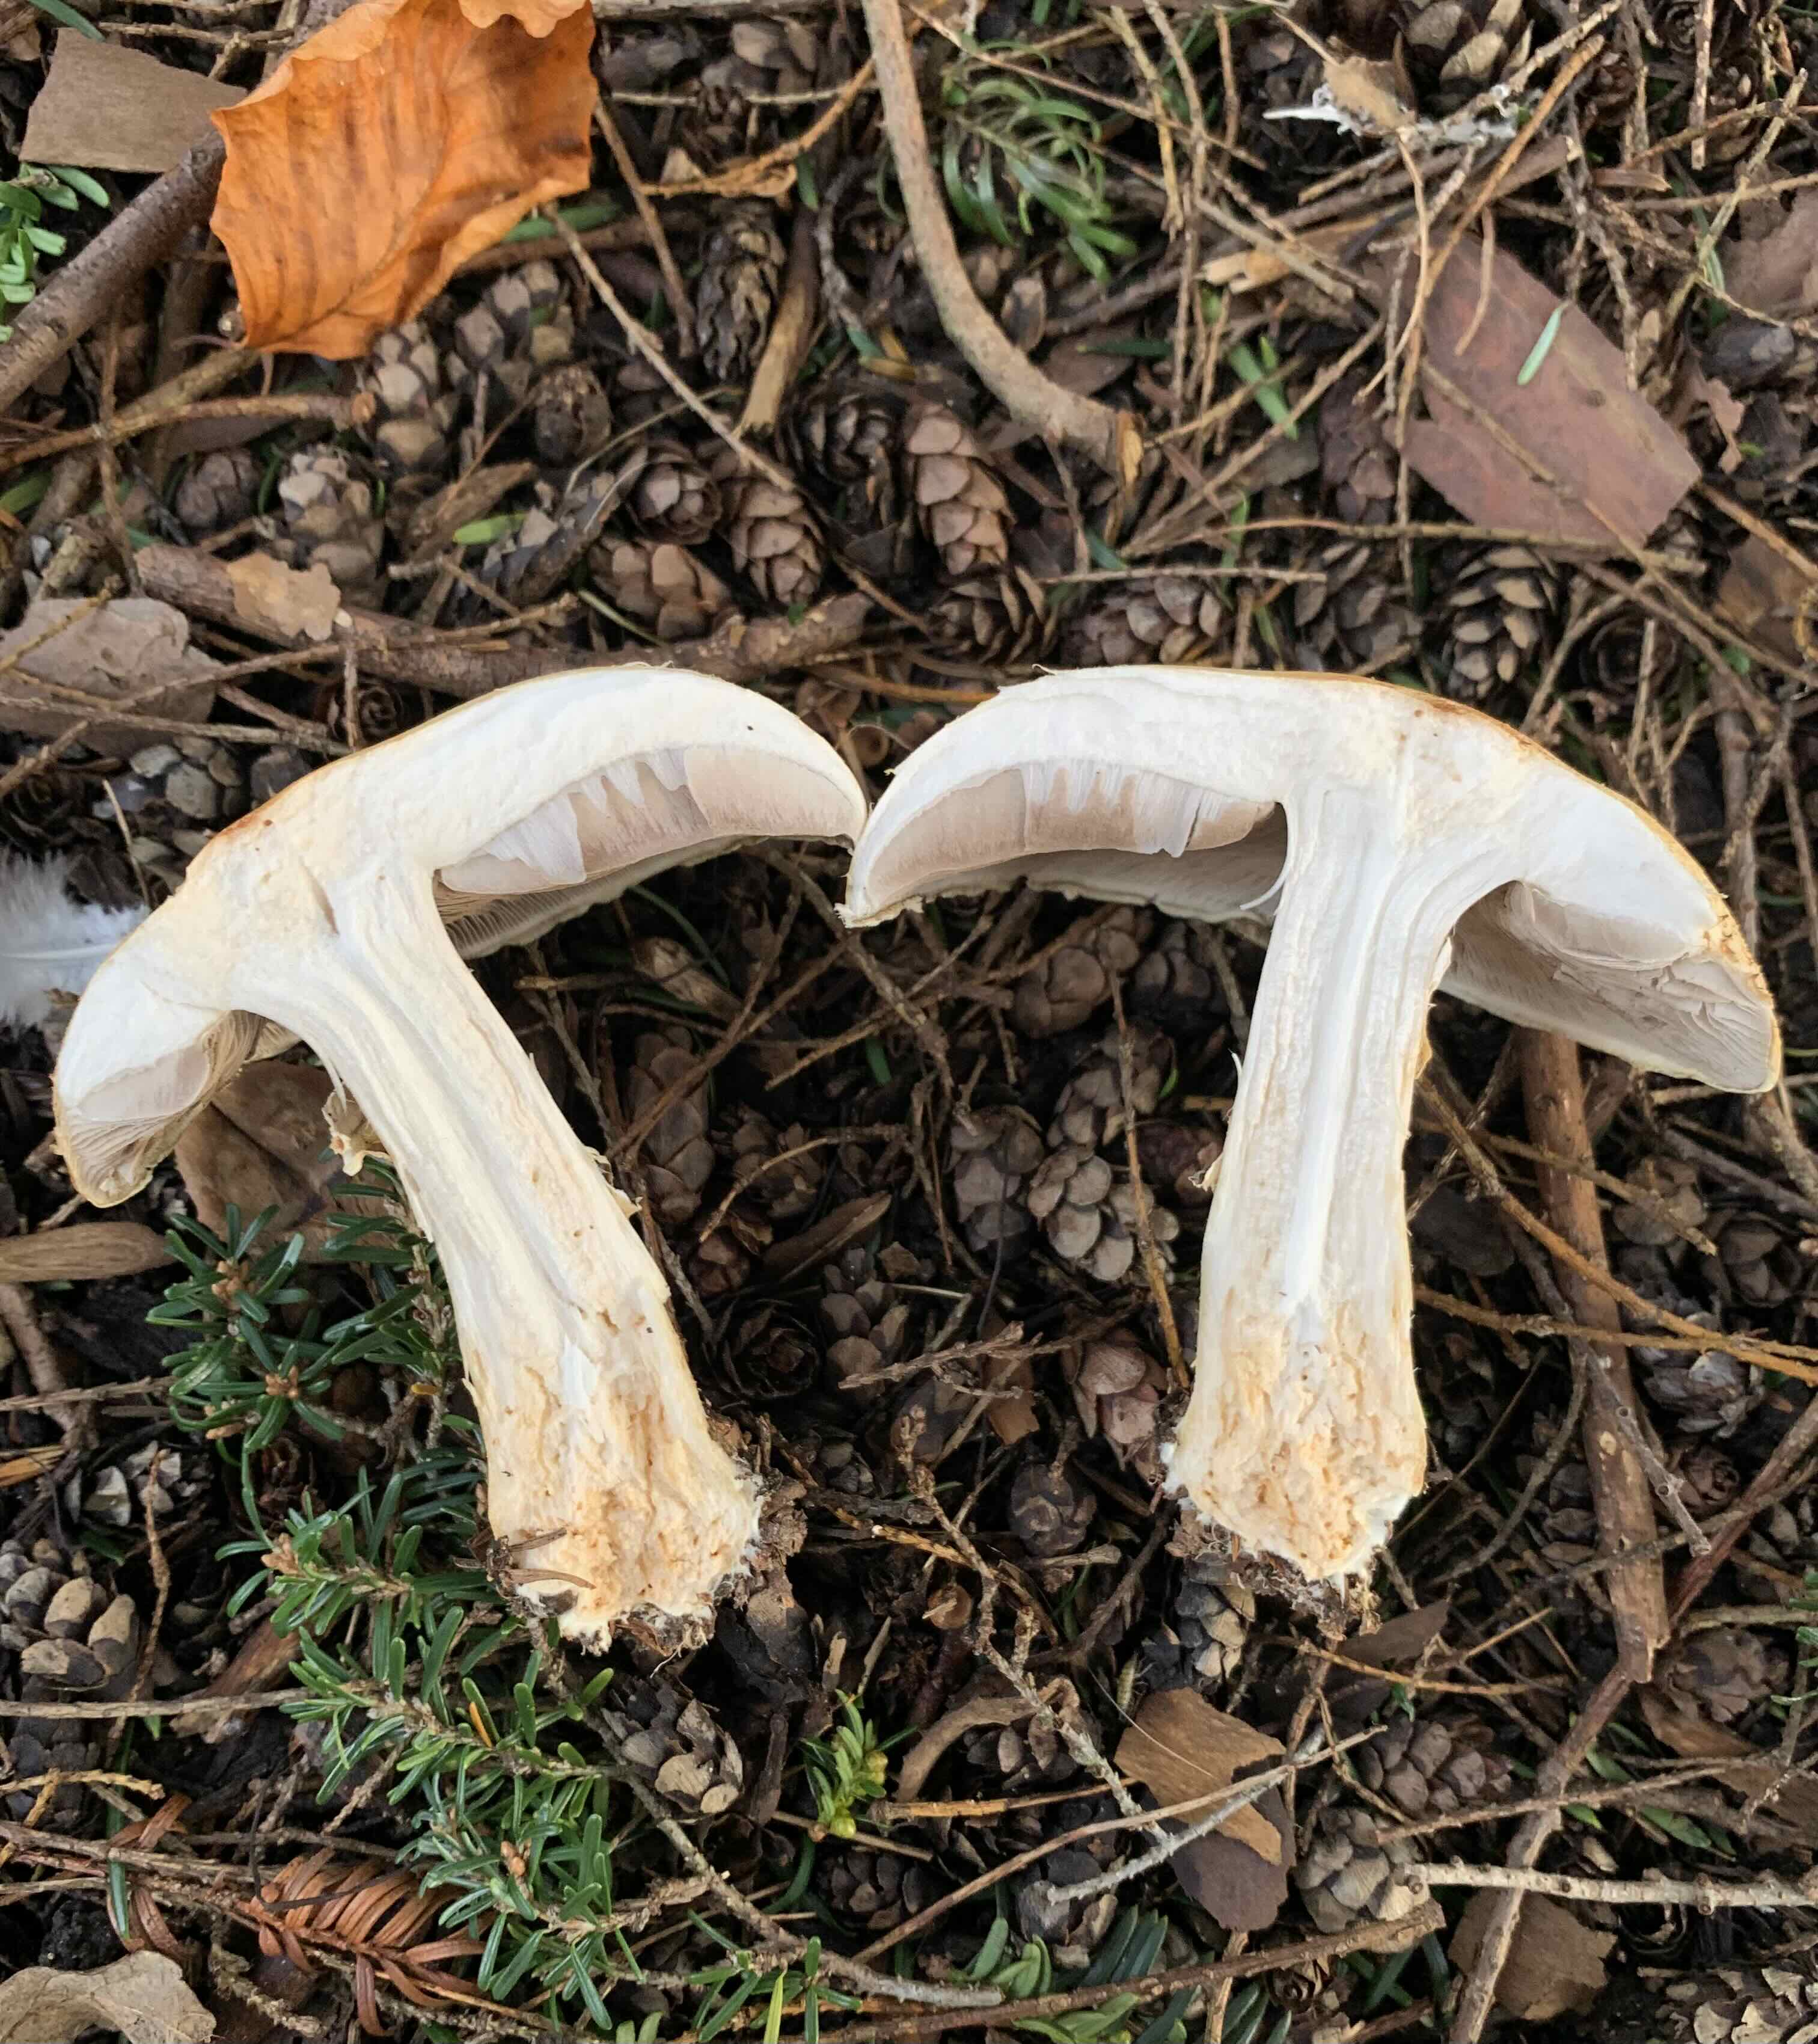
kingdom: Fungi
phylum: Basidiomycota
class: Agaricomycetes
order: Agaricales
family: Agaricaceae
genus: Agaricus
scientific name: Agaricus sylvicola
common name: gulhvid champignon
